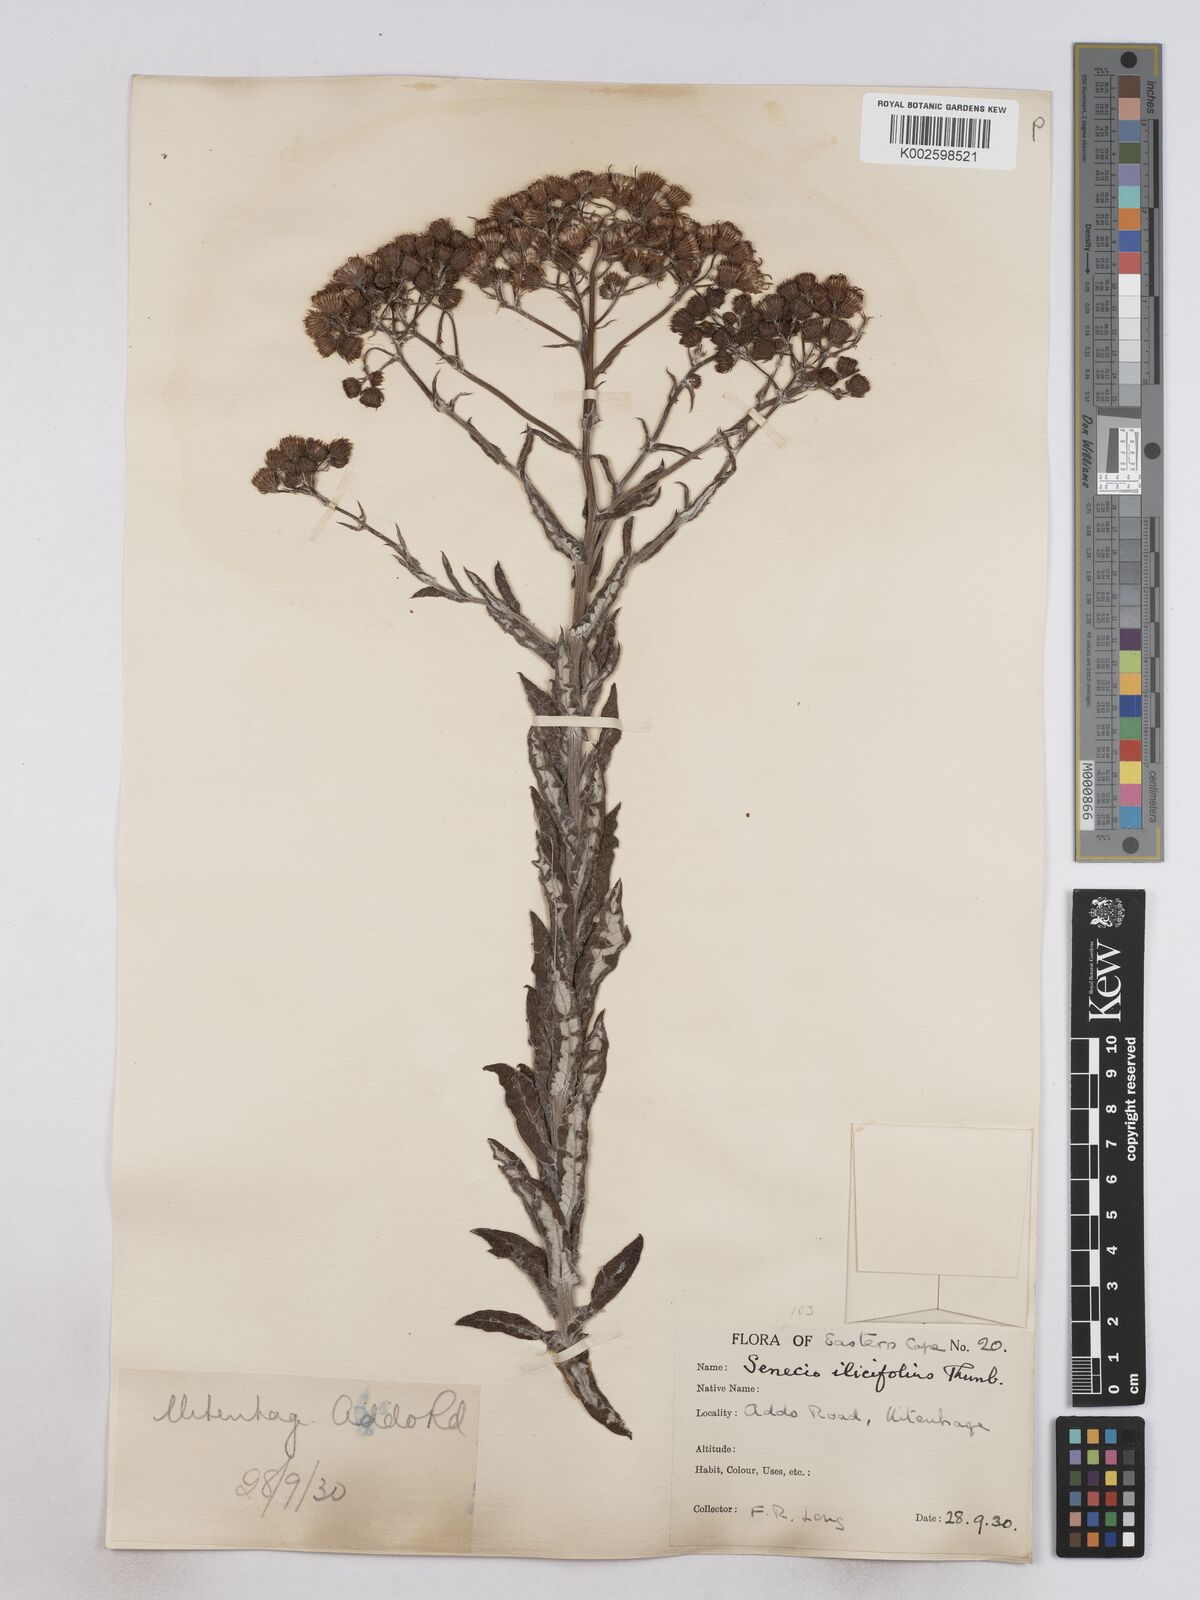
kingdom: Plantae
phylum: Tracheophyta
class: Magnoliopsida
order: Asterales
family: Asteraceae
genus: Senecio
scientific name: Senecio ilicifolius
